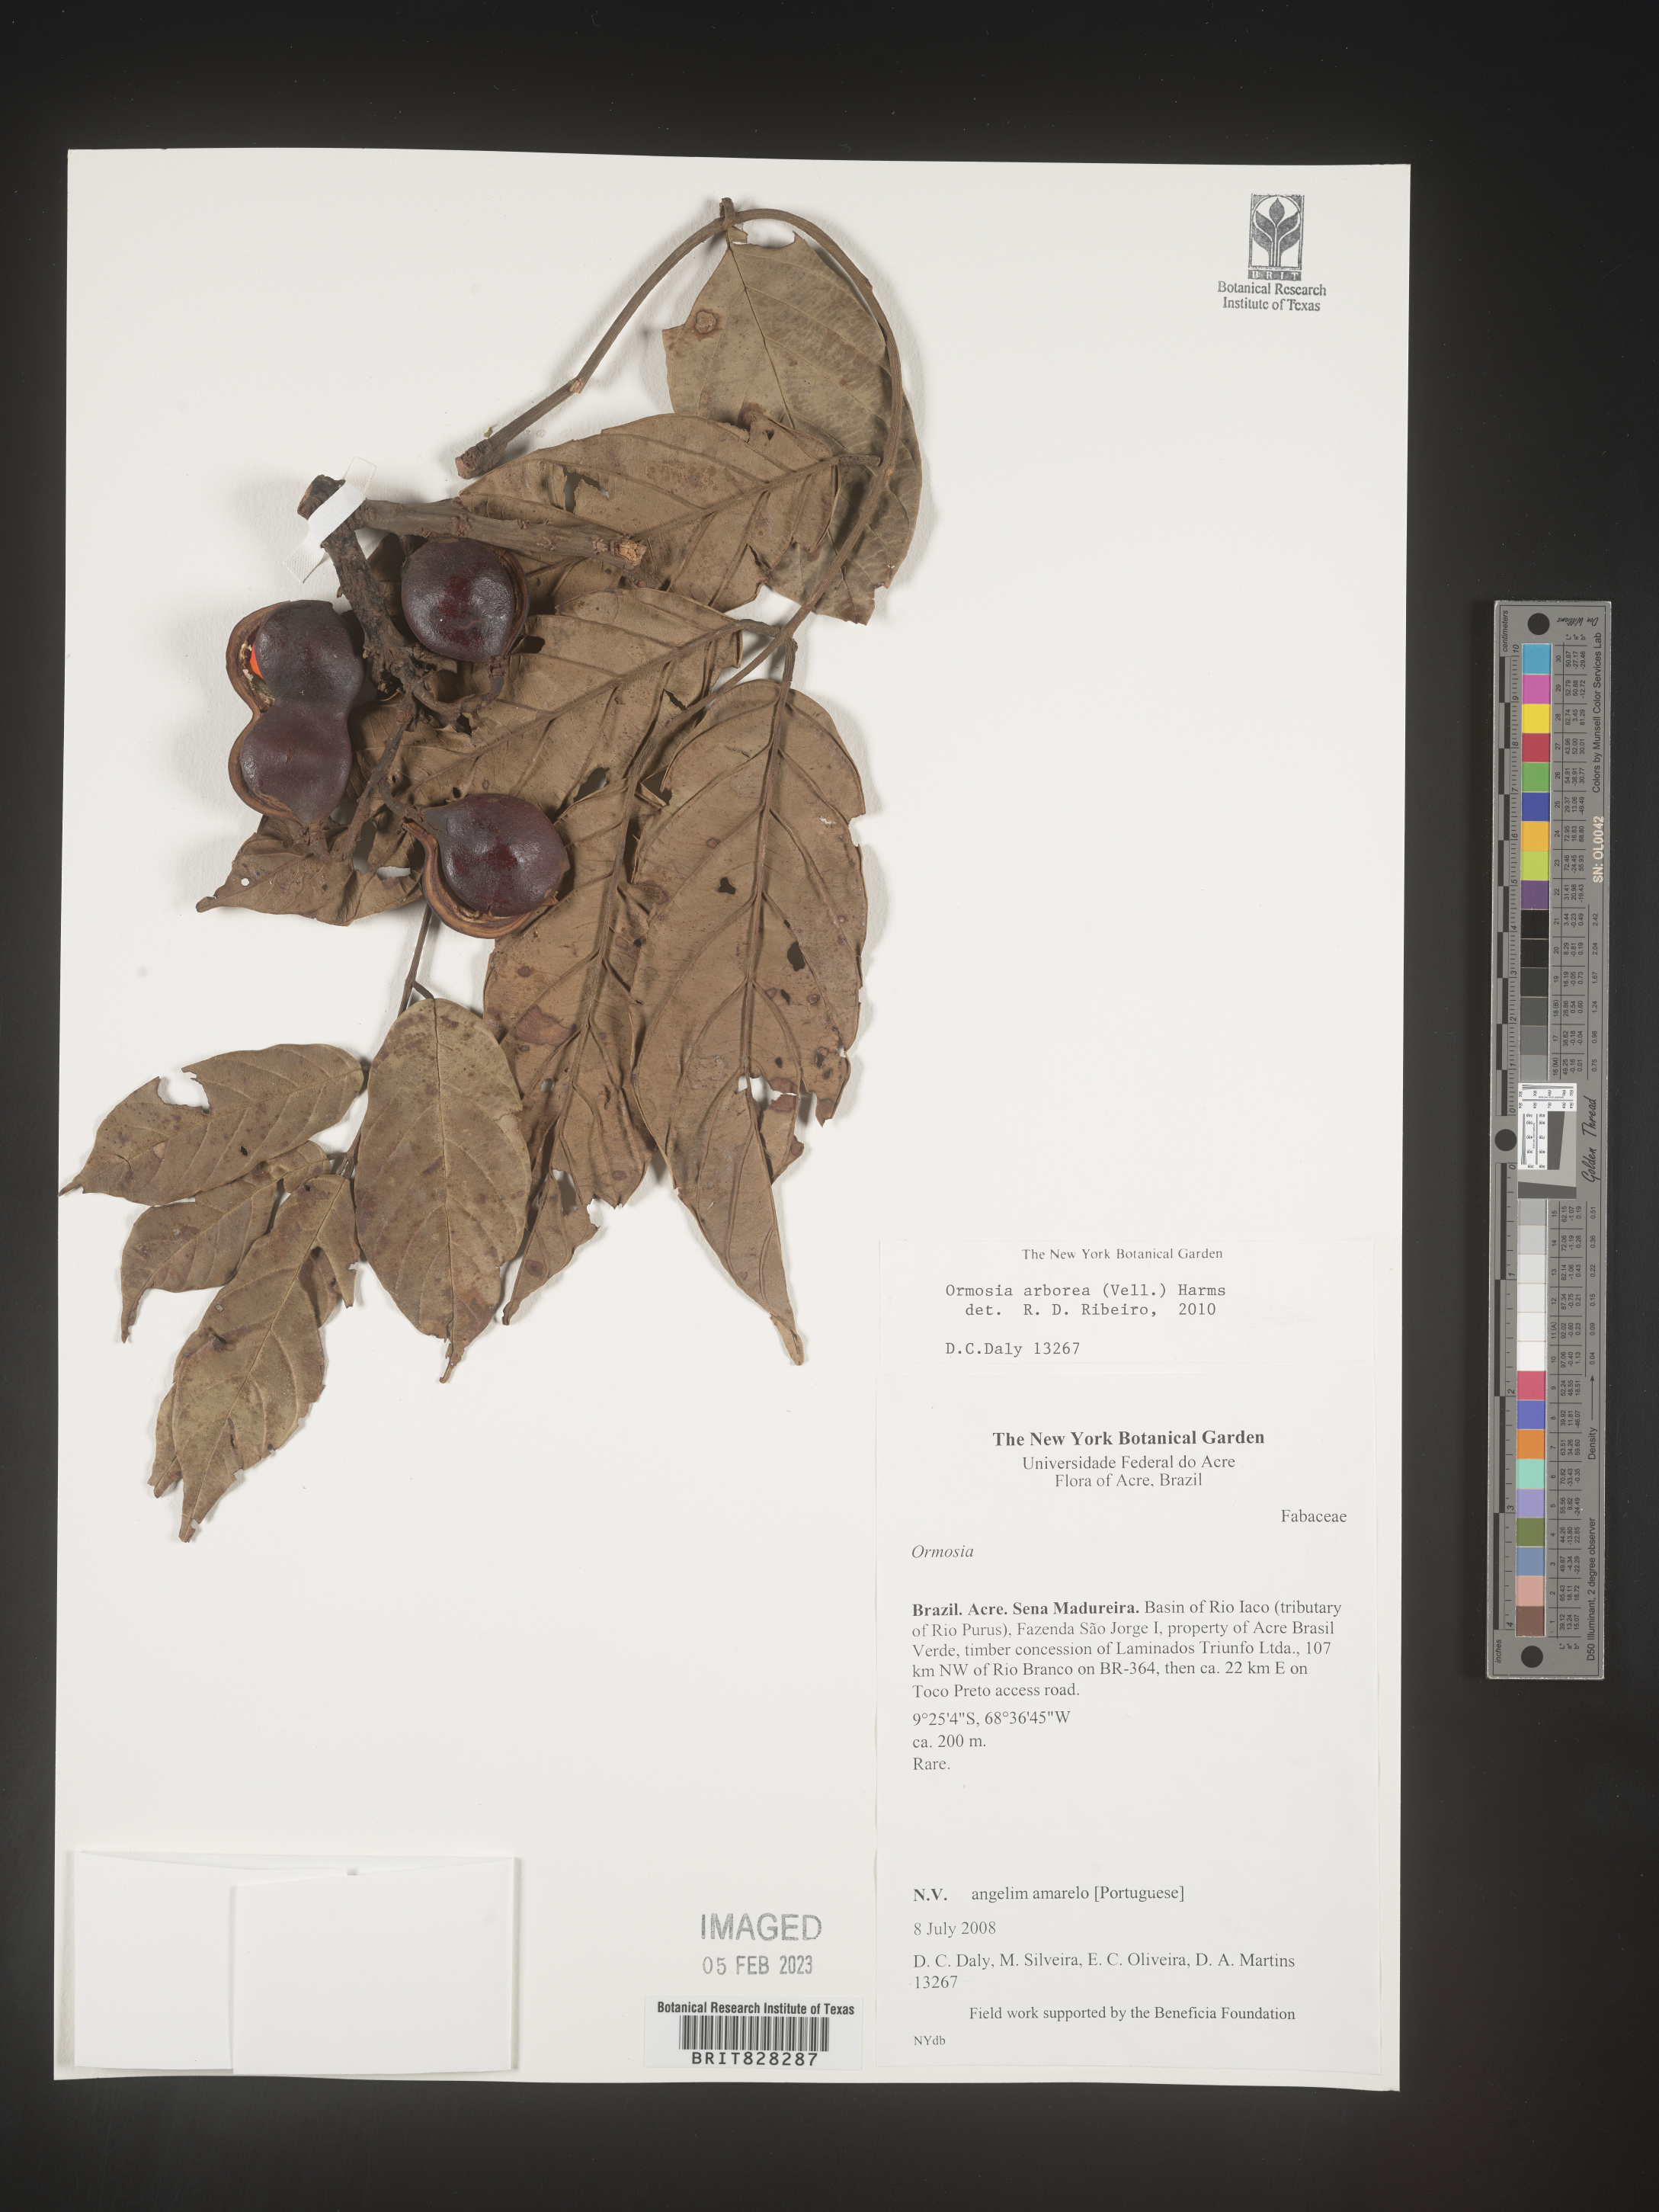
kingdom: Plantae
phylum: Tracheophyta
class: Magnoliopsida
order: Fabales
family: Fabaceae
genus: Ormosia
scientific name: Ormosia
